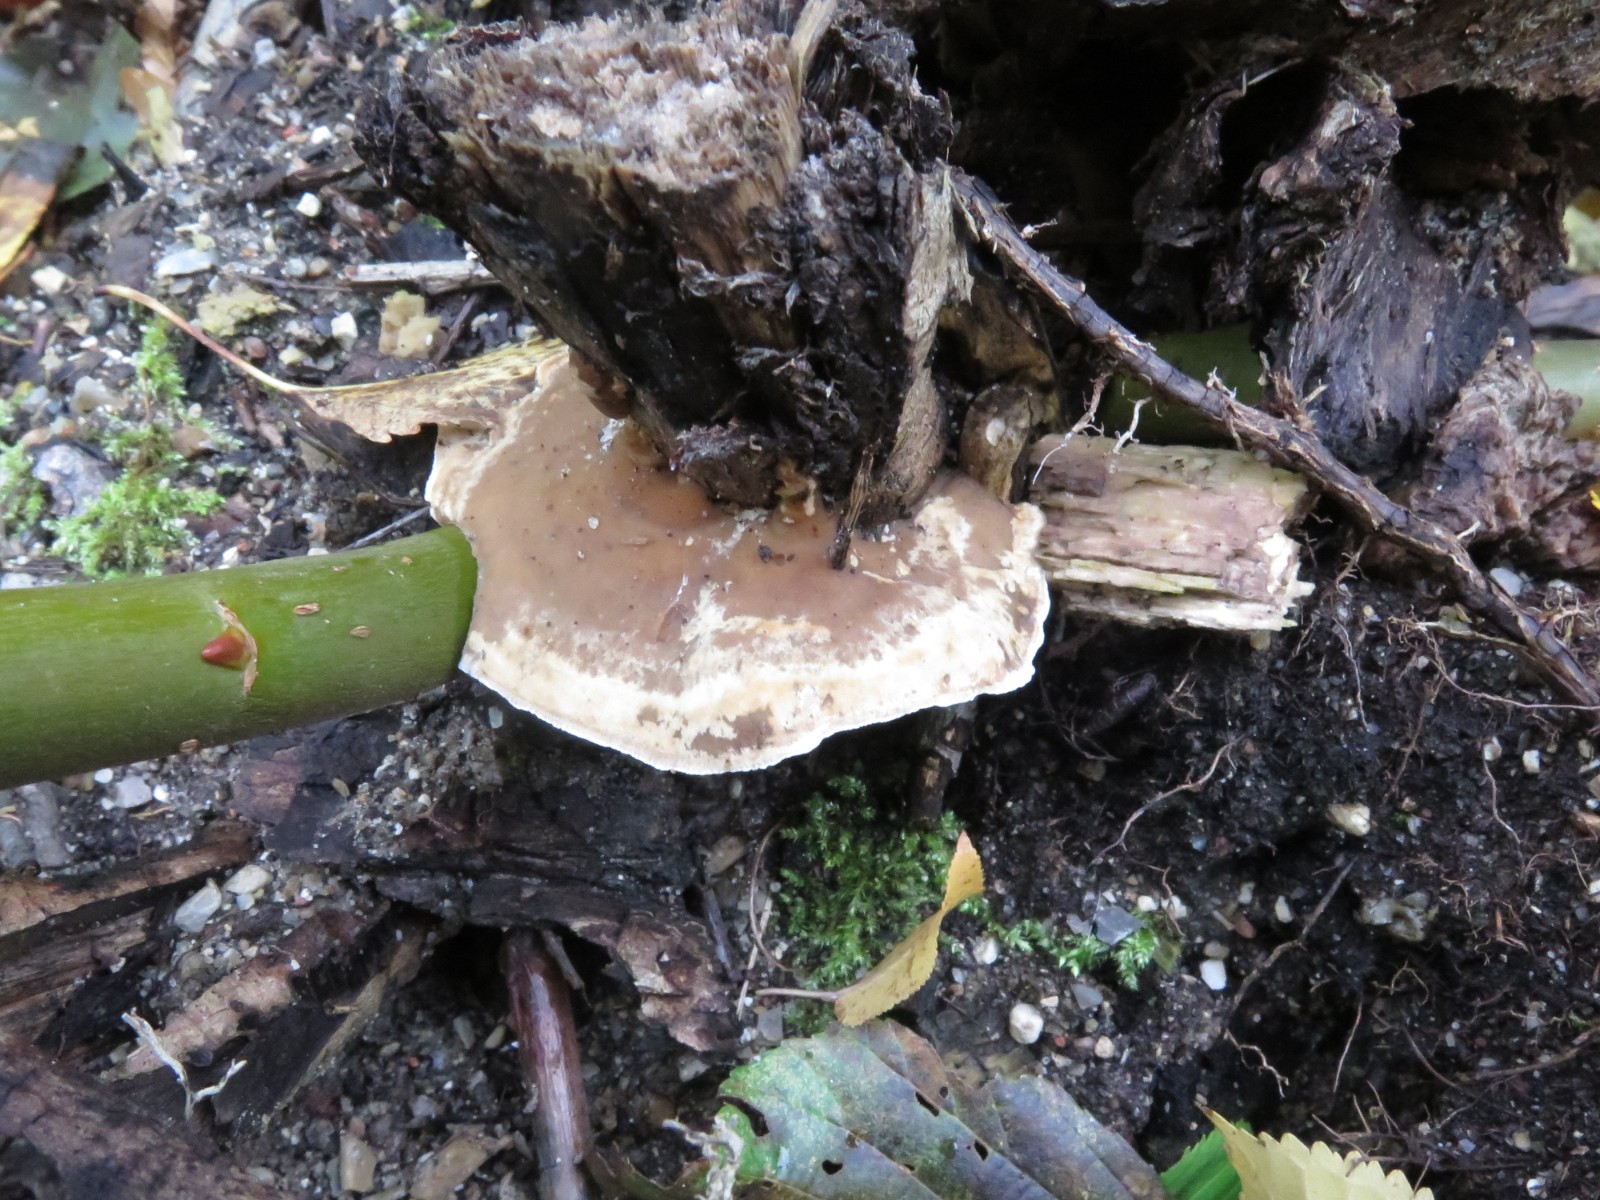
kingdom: Fungi
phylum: Basidiomycota
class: Agaricomycetes
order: Polyporales
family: Phanerochaetaceae
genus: Bjerkandera
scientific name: Bjerkandera adusta
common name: sveden sodporesvamp
